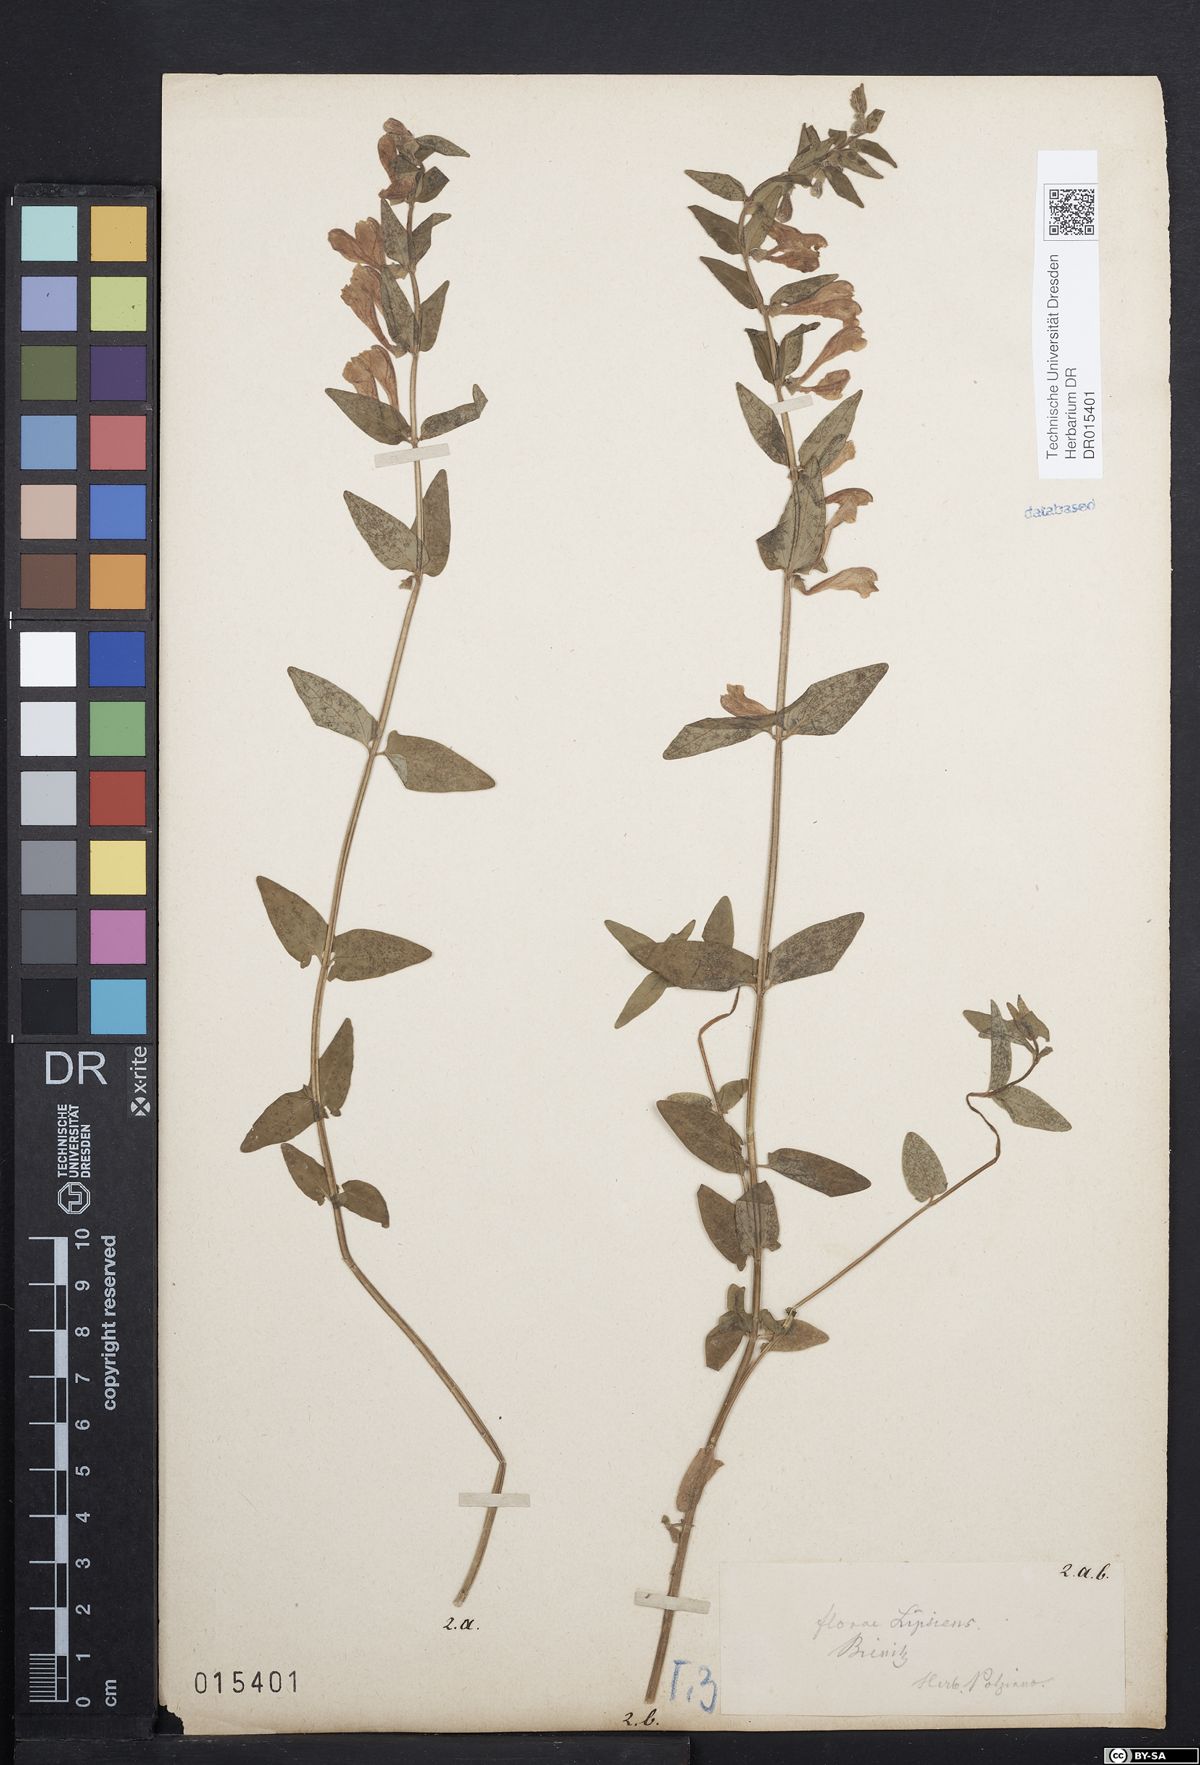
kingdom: Plantae
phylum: Tracheophyta
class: Magnoliopsida
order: Lamiales
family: Lamiaceae
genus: Scutellaria
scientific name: Scutellaria hastifolia
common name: Norfolk skullcap
